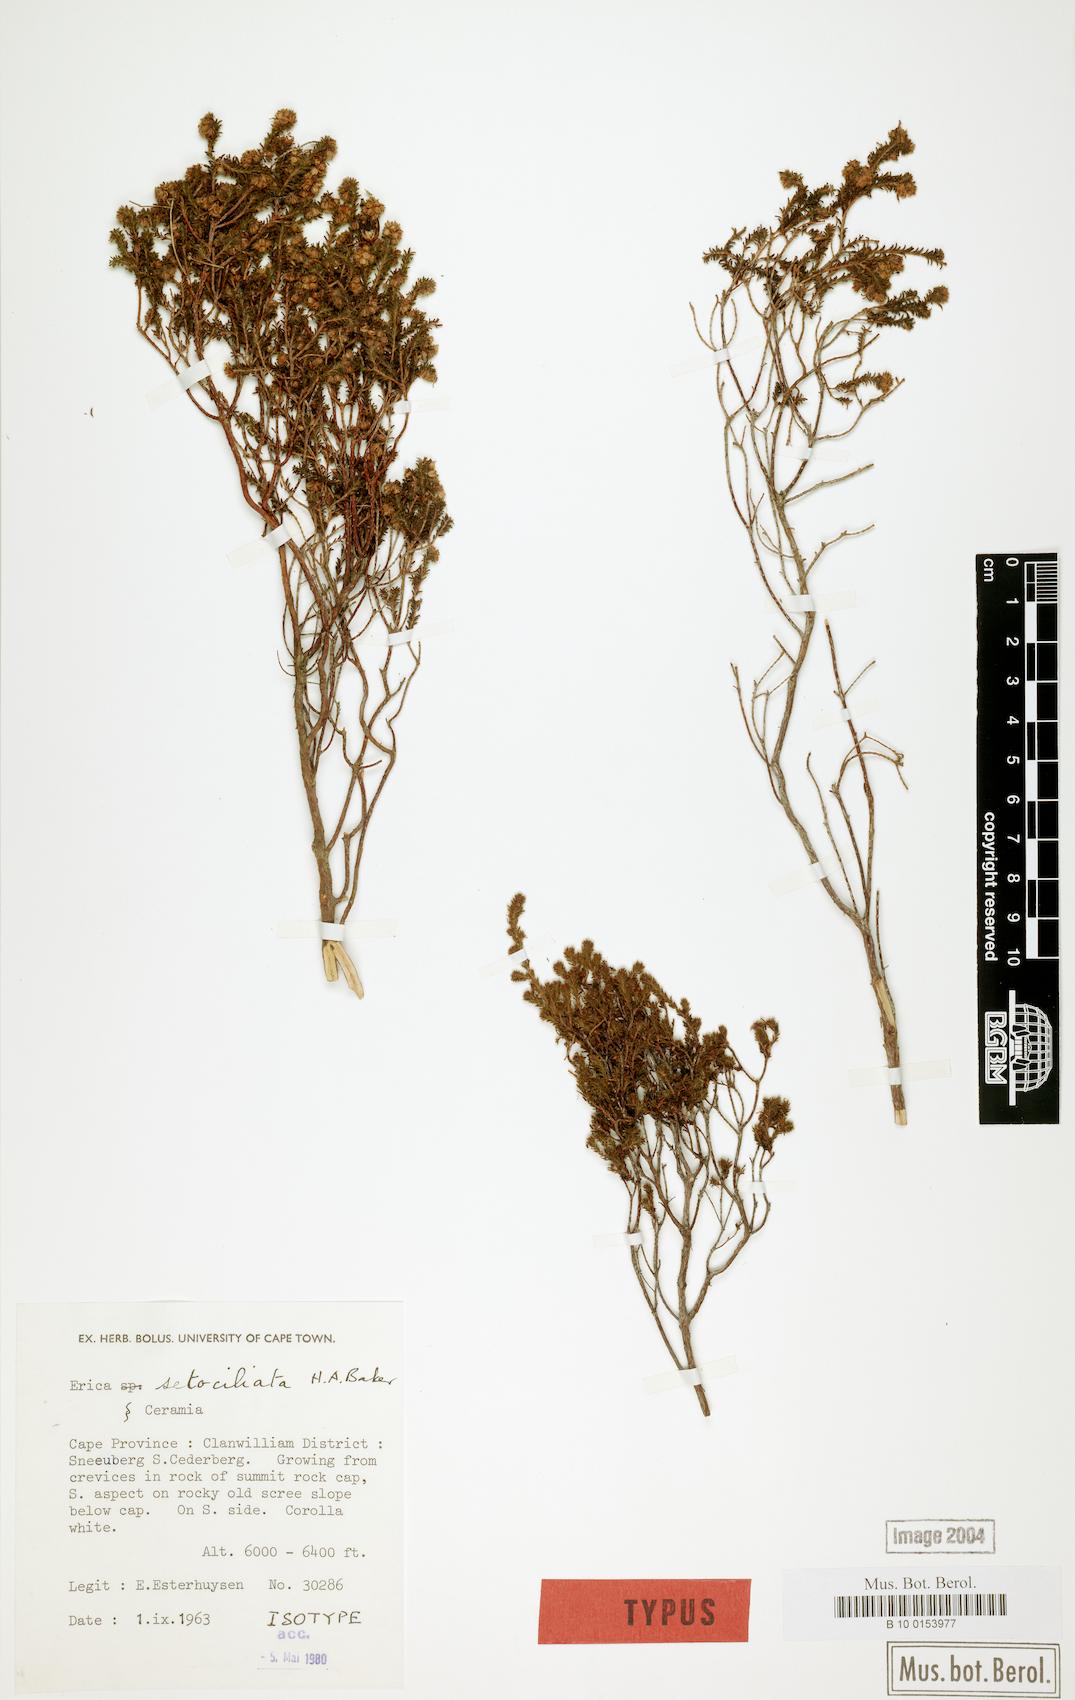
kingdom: Plantae
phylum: Tracheophyta
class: Magnoliopsida
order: Ericales
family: Ericaceae
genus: Erica
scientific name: Erica setociliata
